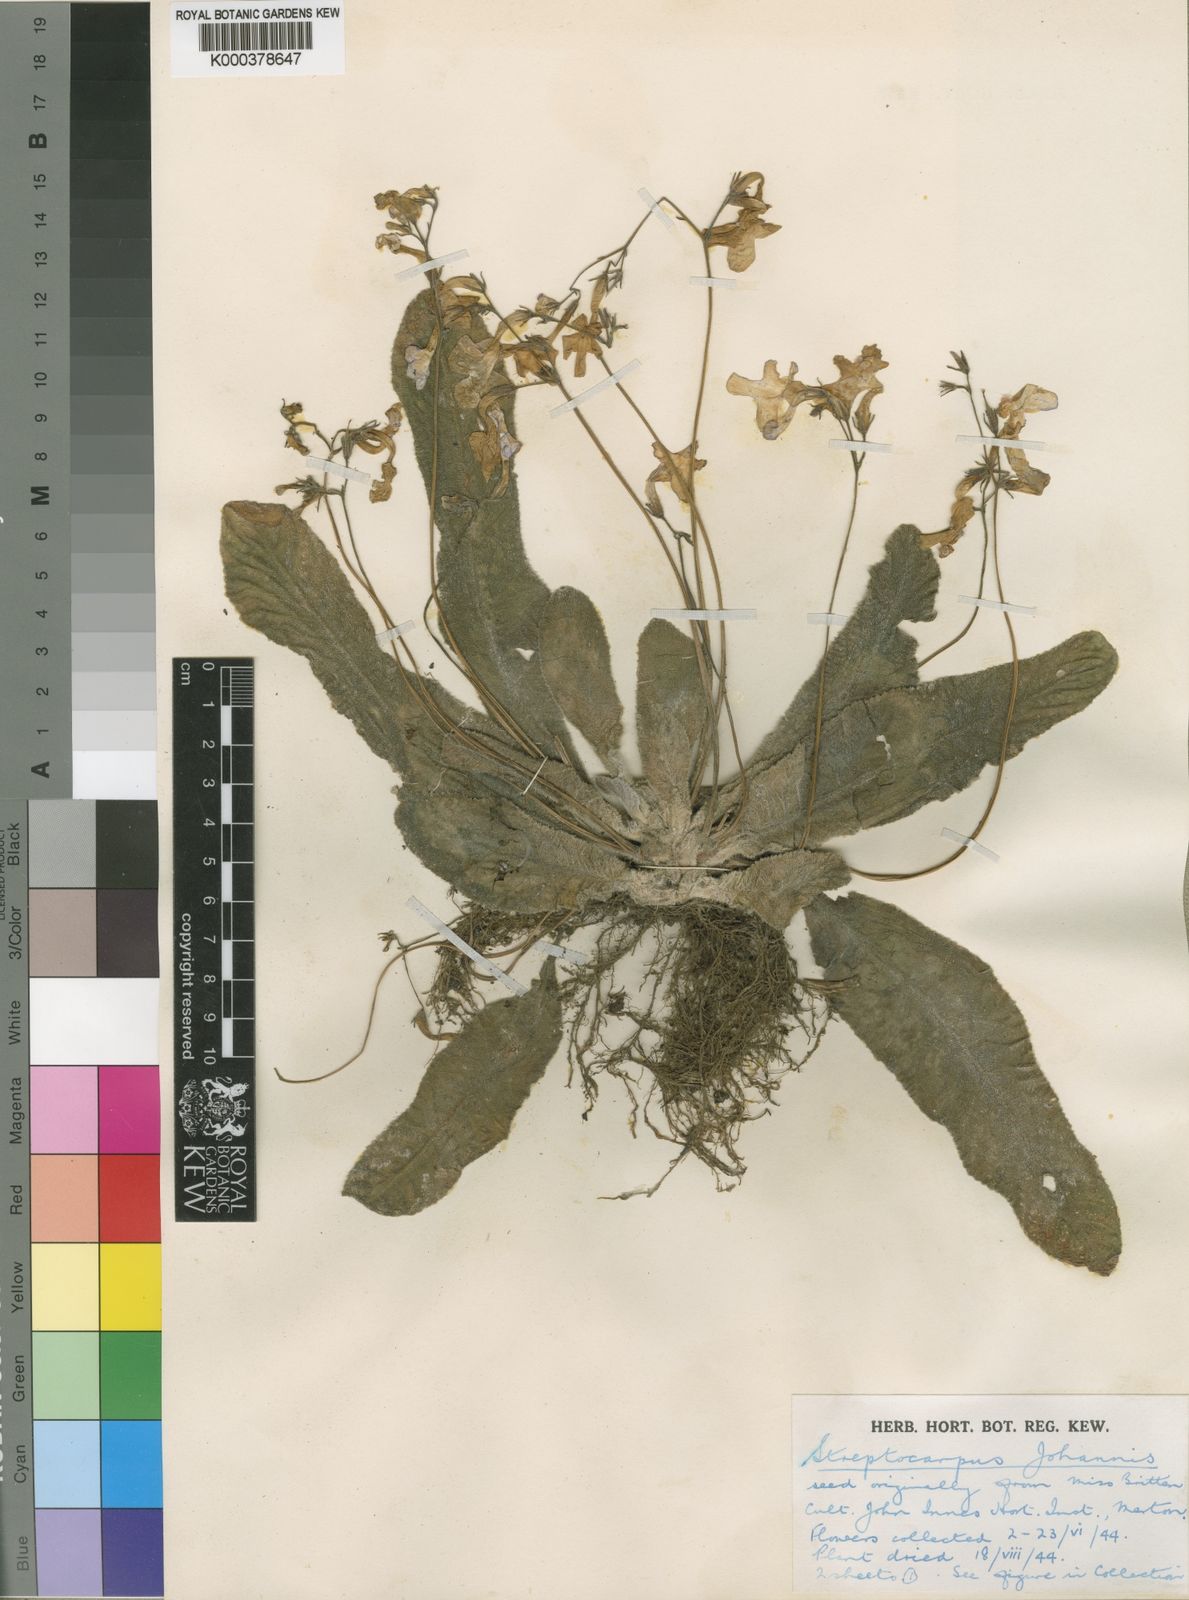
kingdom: Plantae
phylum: Tracheophyta
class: Magnoliopsida
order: Lamiales
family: Gesneriaceae
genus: Streptocarpus
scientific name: Streptocarpus johannis
